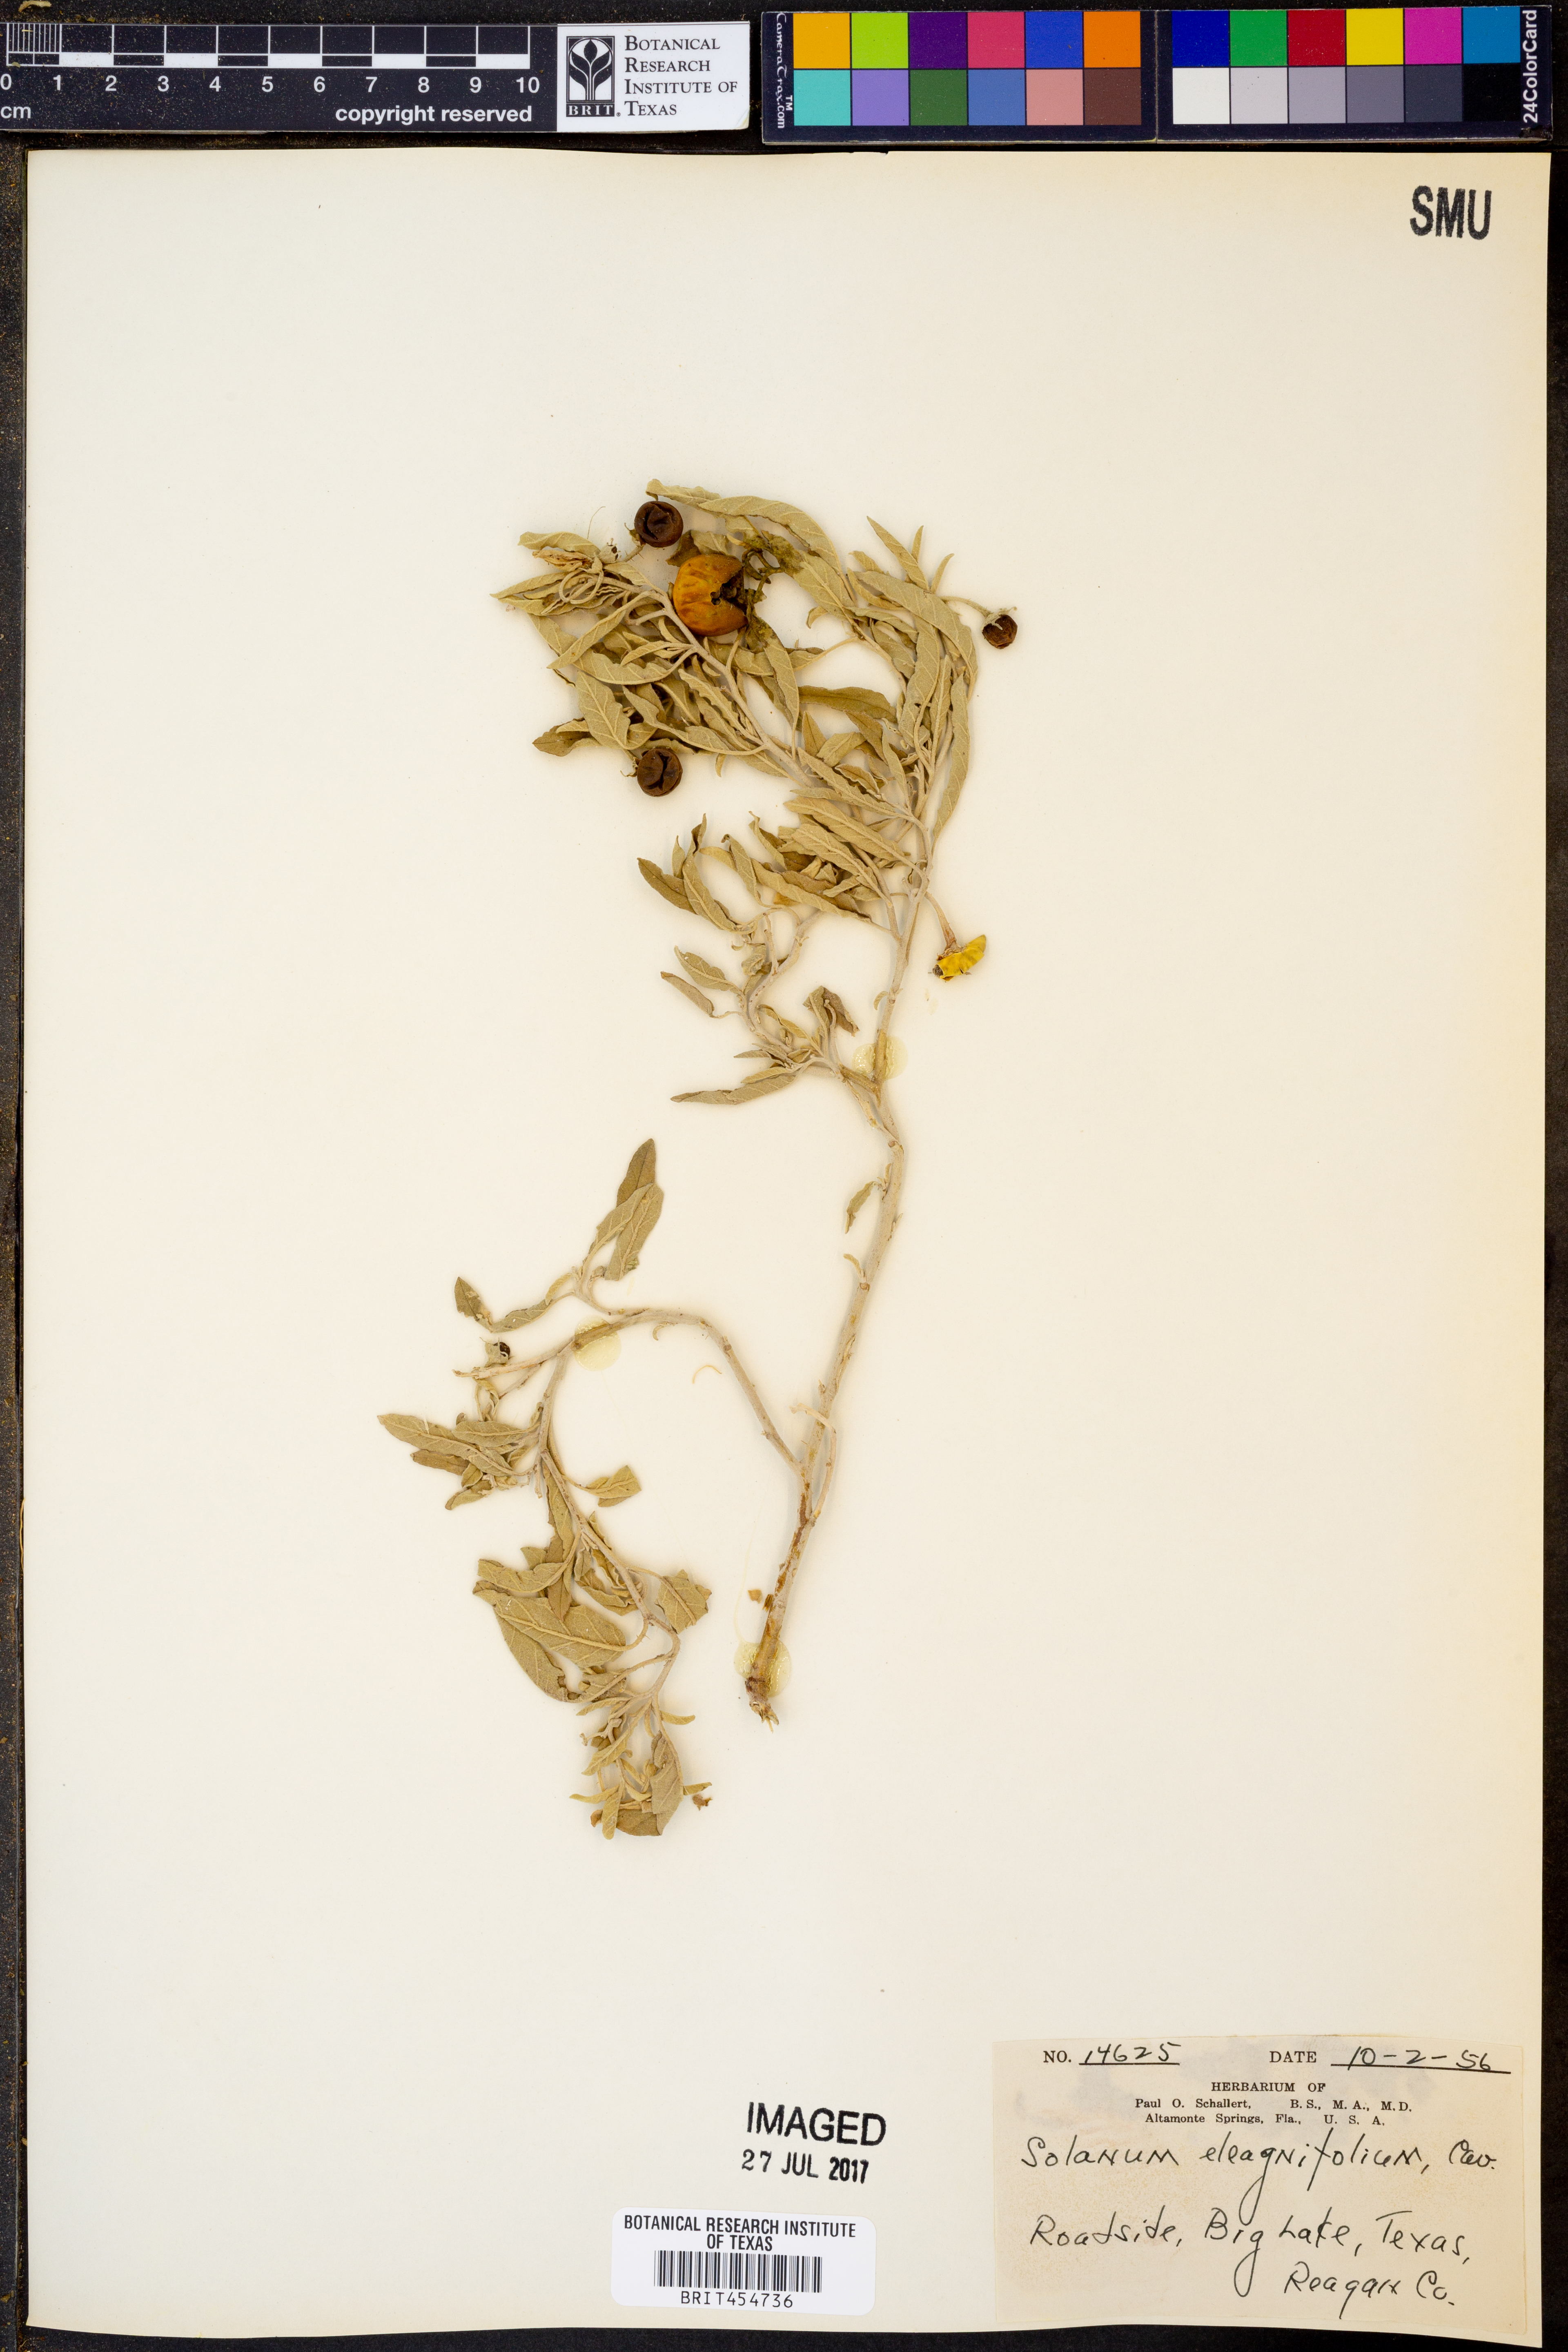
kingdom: Plantae
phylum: Tracheophyta
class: Magnoliopsida
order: Solanales
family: Solanaceae
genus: Solanum
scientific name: Solanum elaeagnifolium
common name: Silverleaf nightshade
